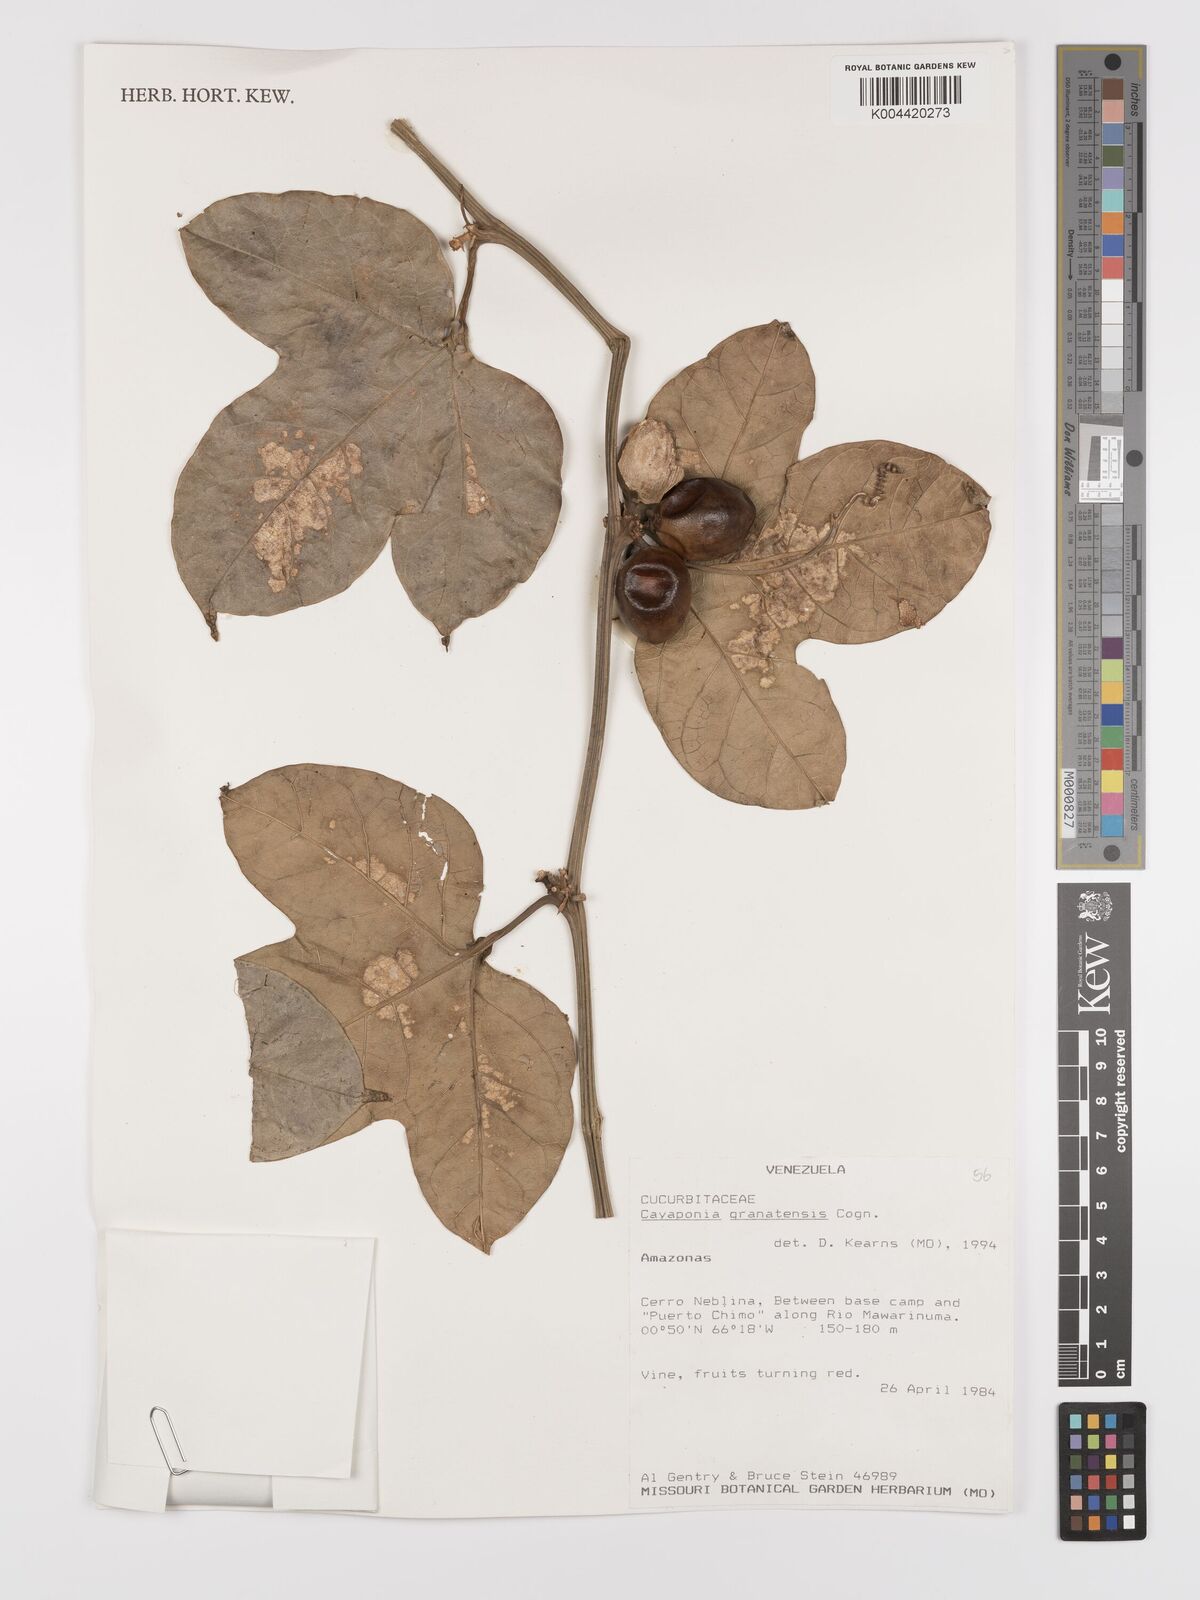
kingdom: Plantae
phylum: Tracheophyta
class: Magnoliopsida
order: Cucurbitales
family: Cucurbitaceae
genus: Cayaponia
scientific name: Cayaponia granatensis
